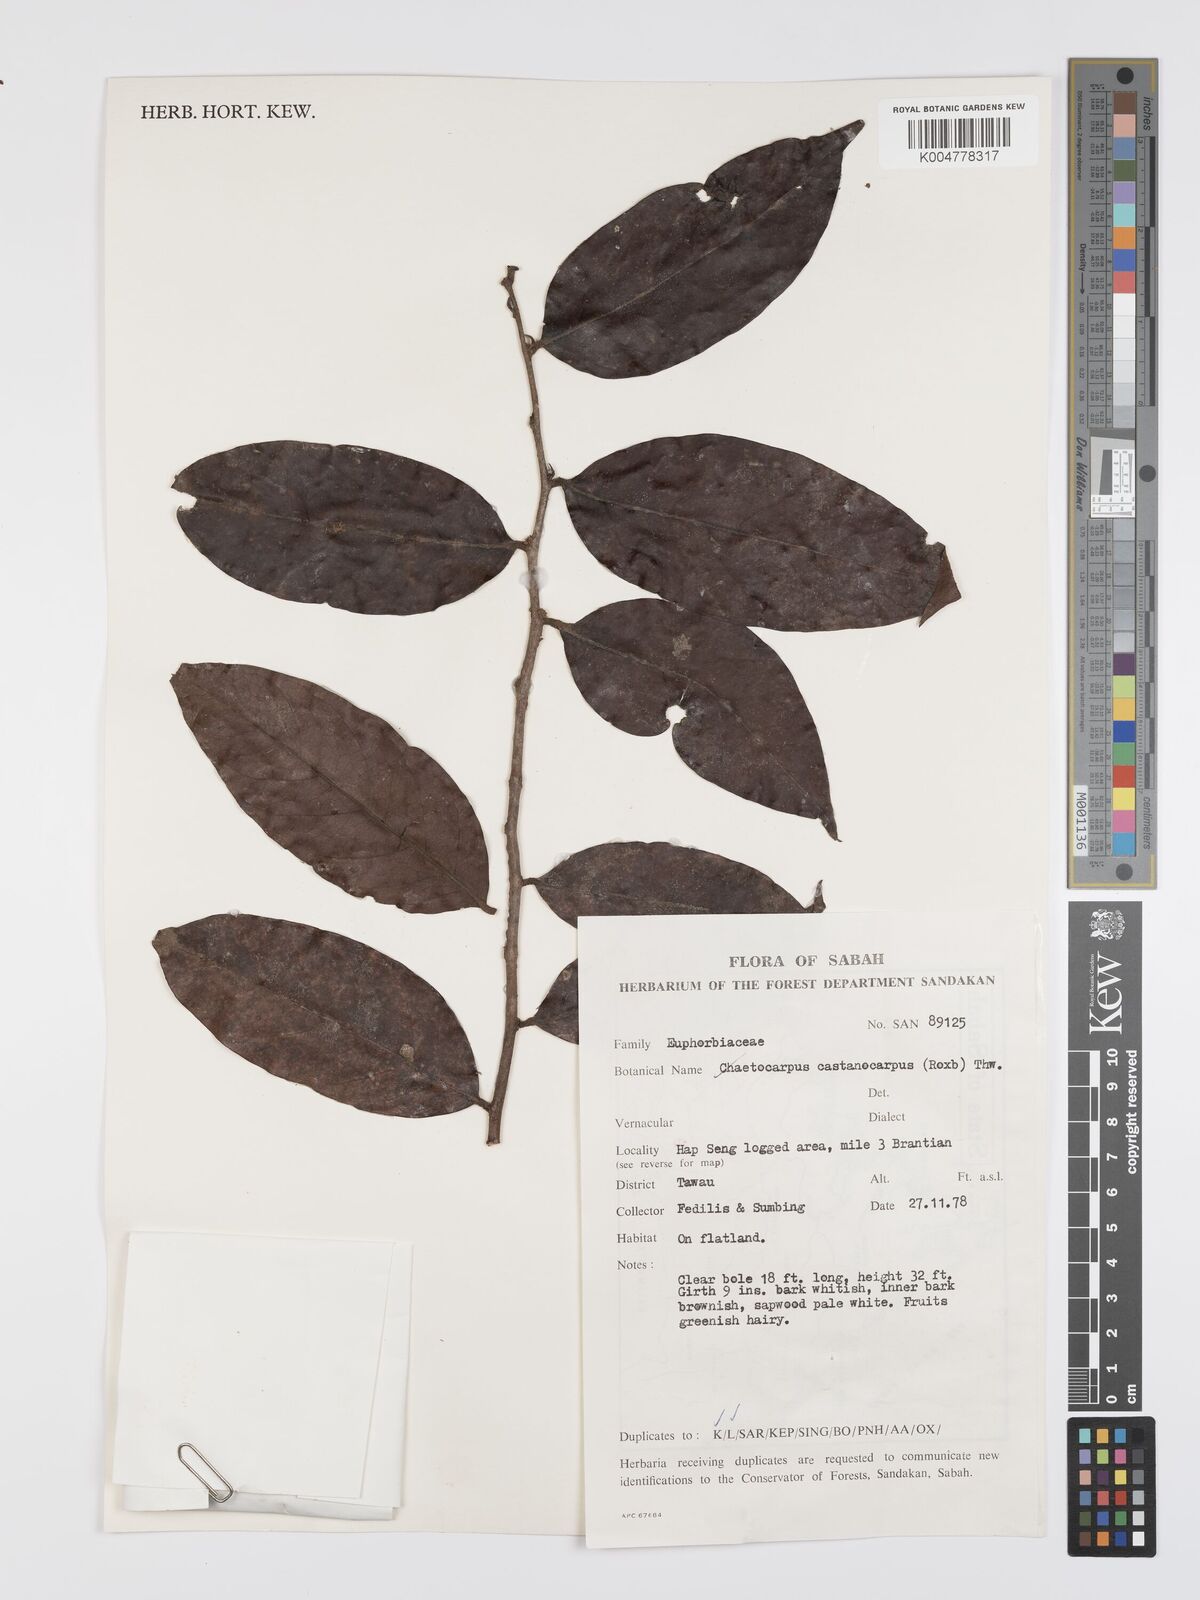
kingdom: Plantae
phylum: Tracheophyta
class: Magnoliopsida
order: Malpighiales
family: Peraceae
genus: Chaetocarpus
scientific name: Chaetocarpus castanocarpus
